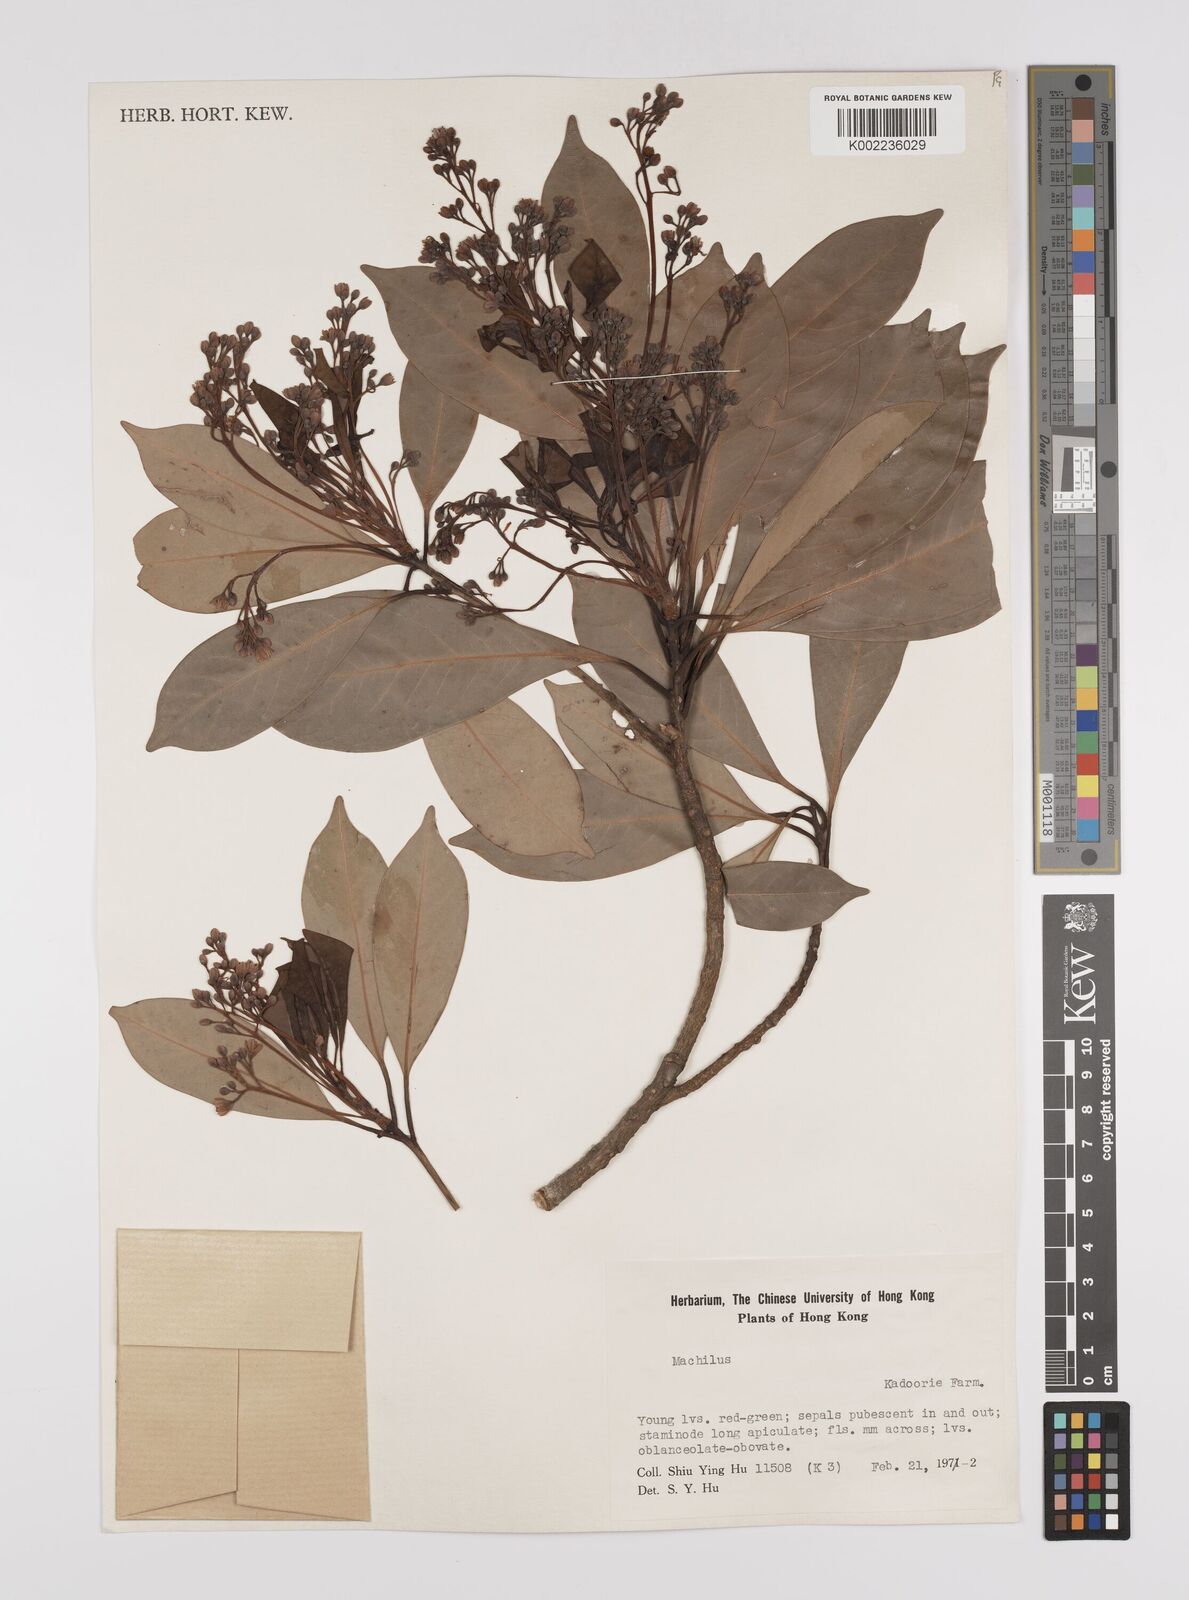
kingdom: Plantae
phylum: Tracheophyta
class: Magnoliopsida
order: Laurales
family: Lauraceae
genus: Persea
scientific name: Persea
